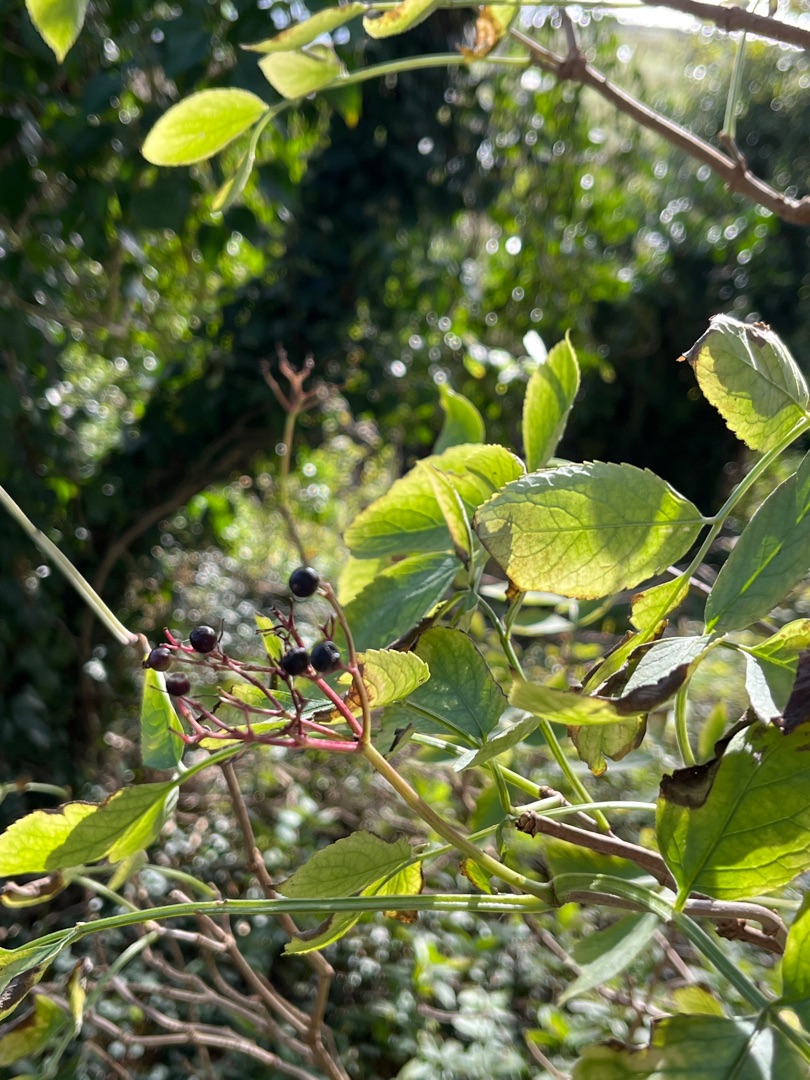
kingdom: Plantae
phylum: Tracheophyta
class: Magnoliopsida
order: Dipsacales
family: Viburnaceae
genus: Sambucus
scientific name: Sambucus nigra
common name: Almindelig hyld
